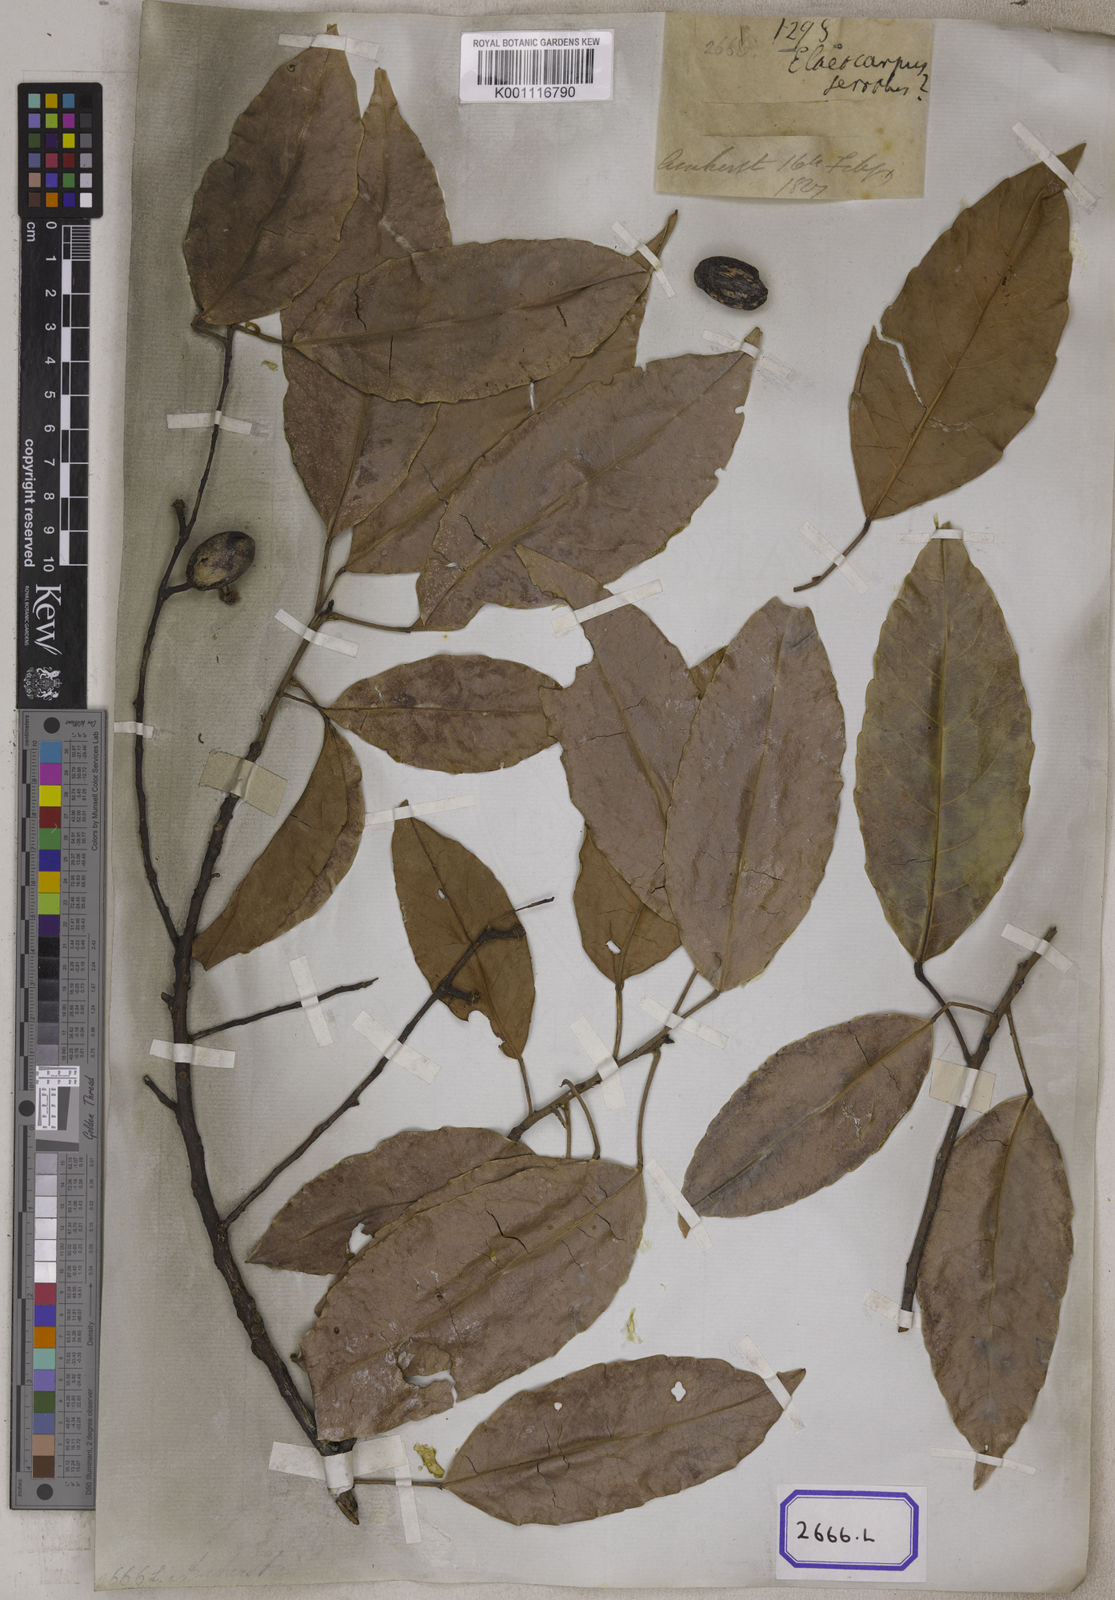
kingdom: Plantae
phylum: Tracheophyta
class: Magnoliopsida
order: Oxalidales
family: Elaeocarpaceae
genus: Elaeocarpus
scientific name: Elaeocarpus serratus
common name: Ceylon-olive
